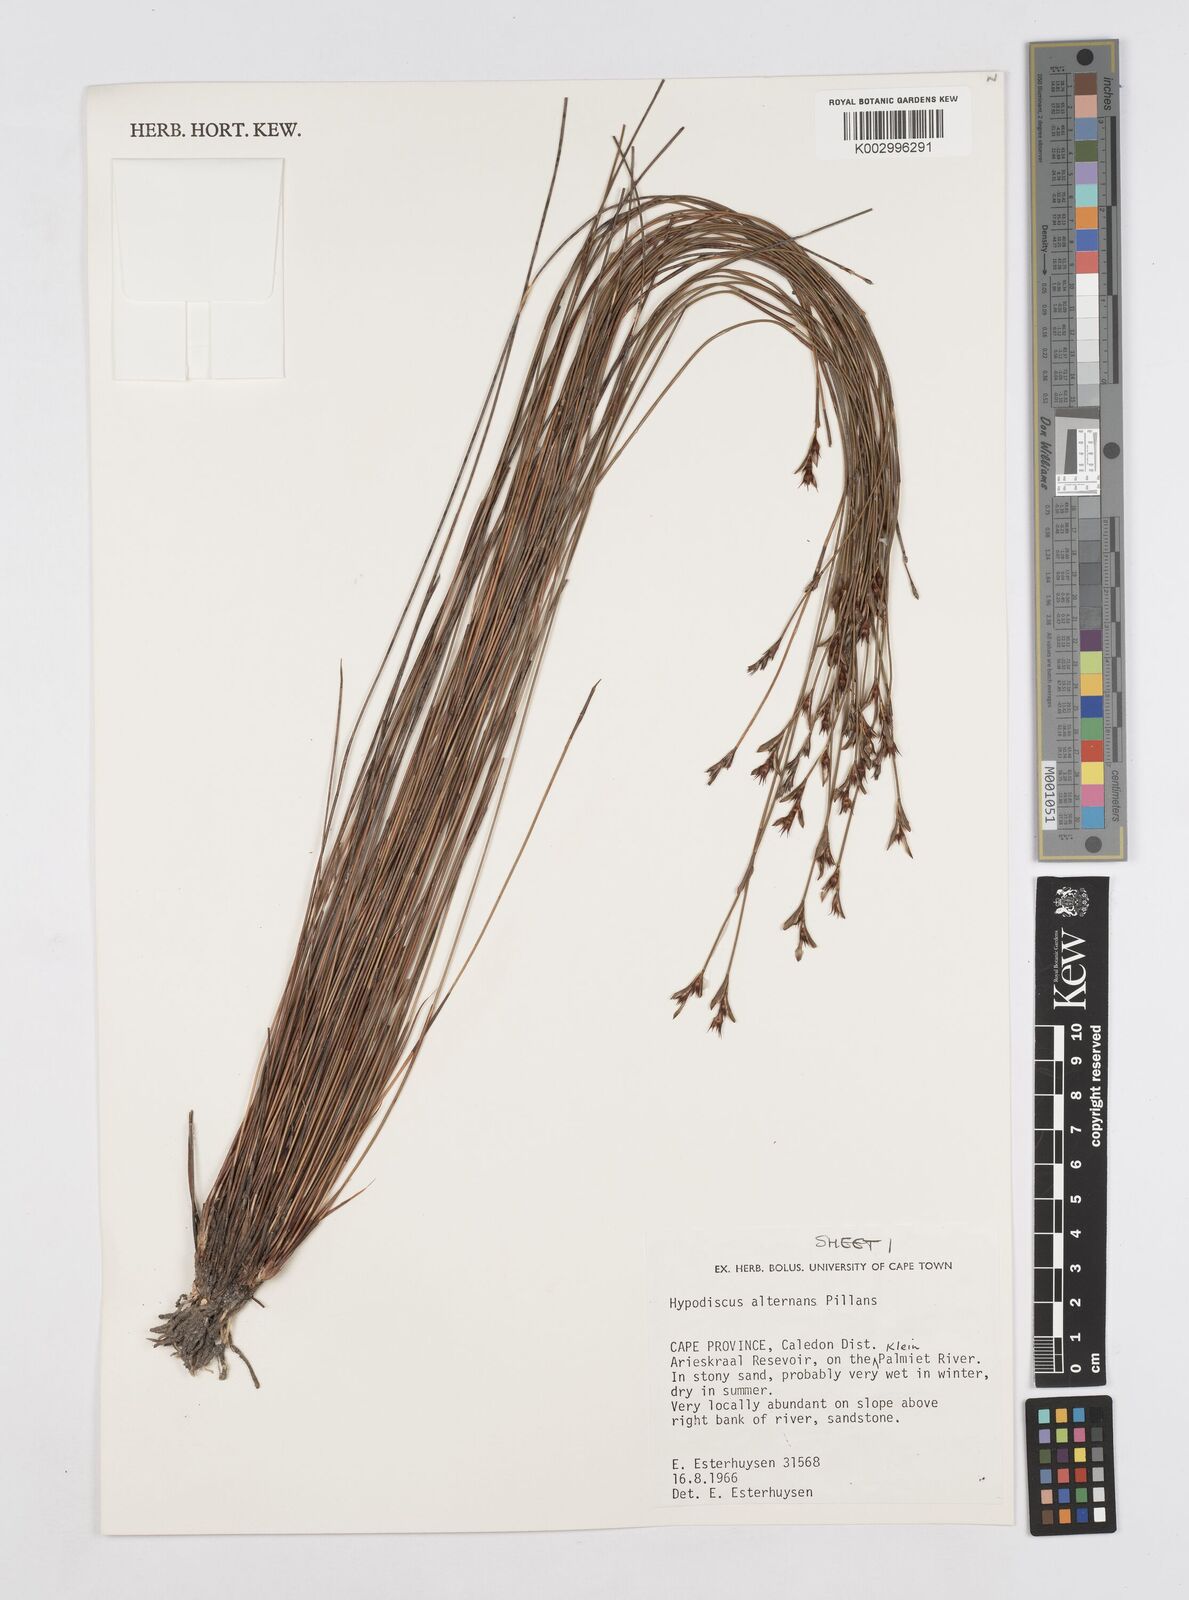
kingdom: Plantae
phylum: Tracheophyta
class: Liliopsida
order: Poales
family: Restionaceae
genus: Hypodiscus
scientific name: Hypodiscus alternans
